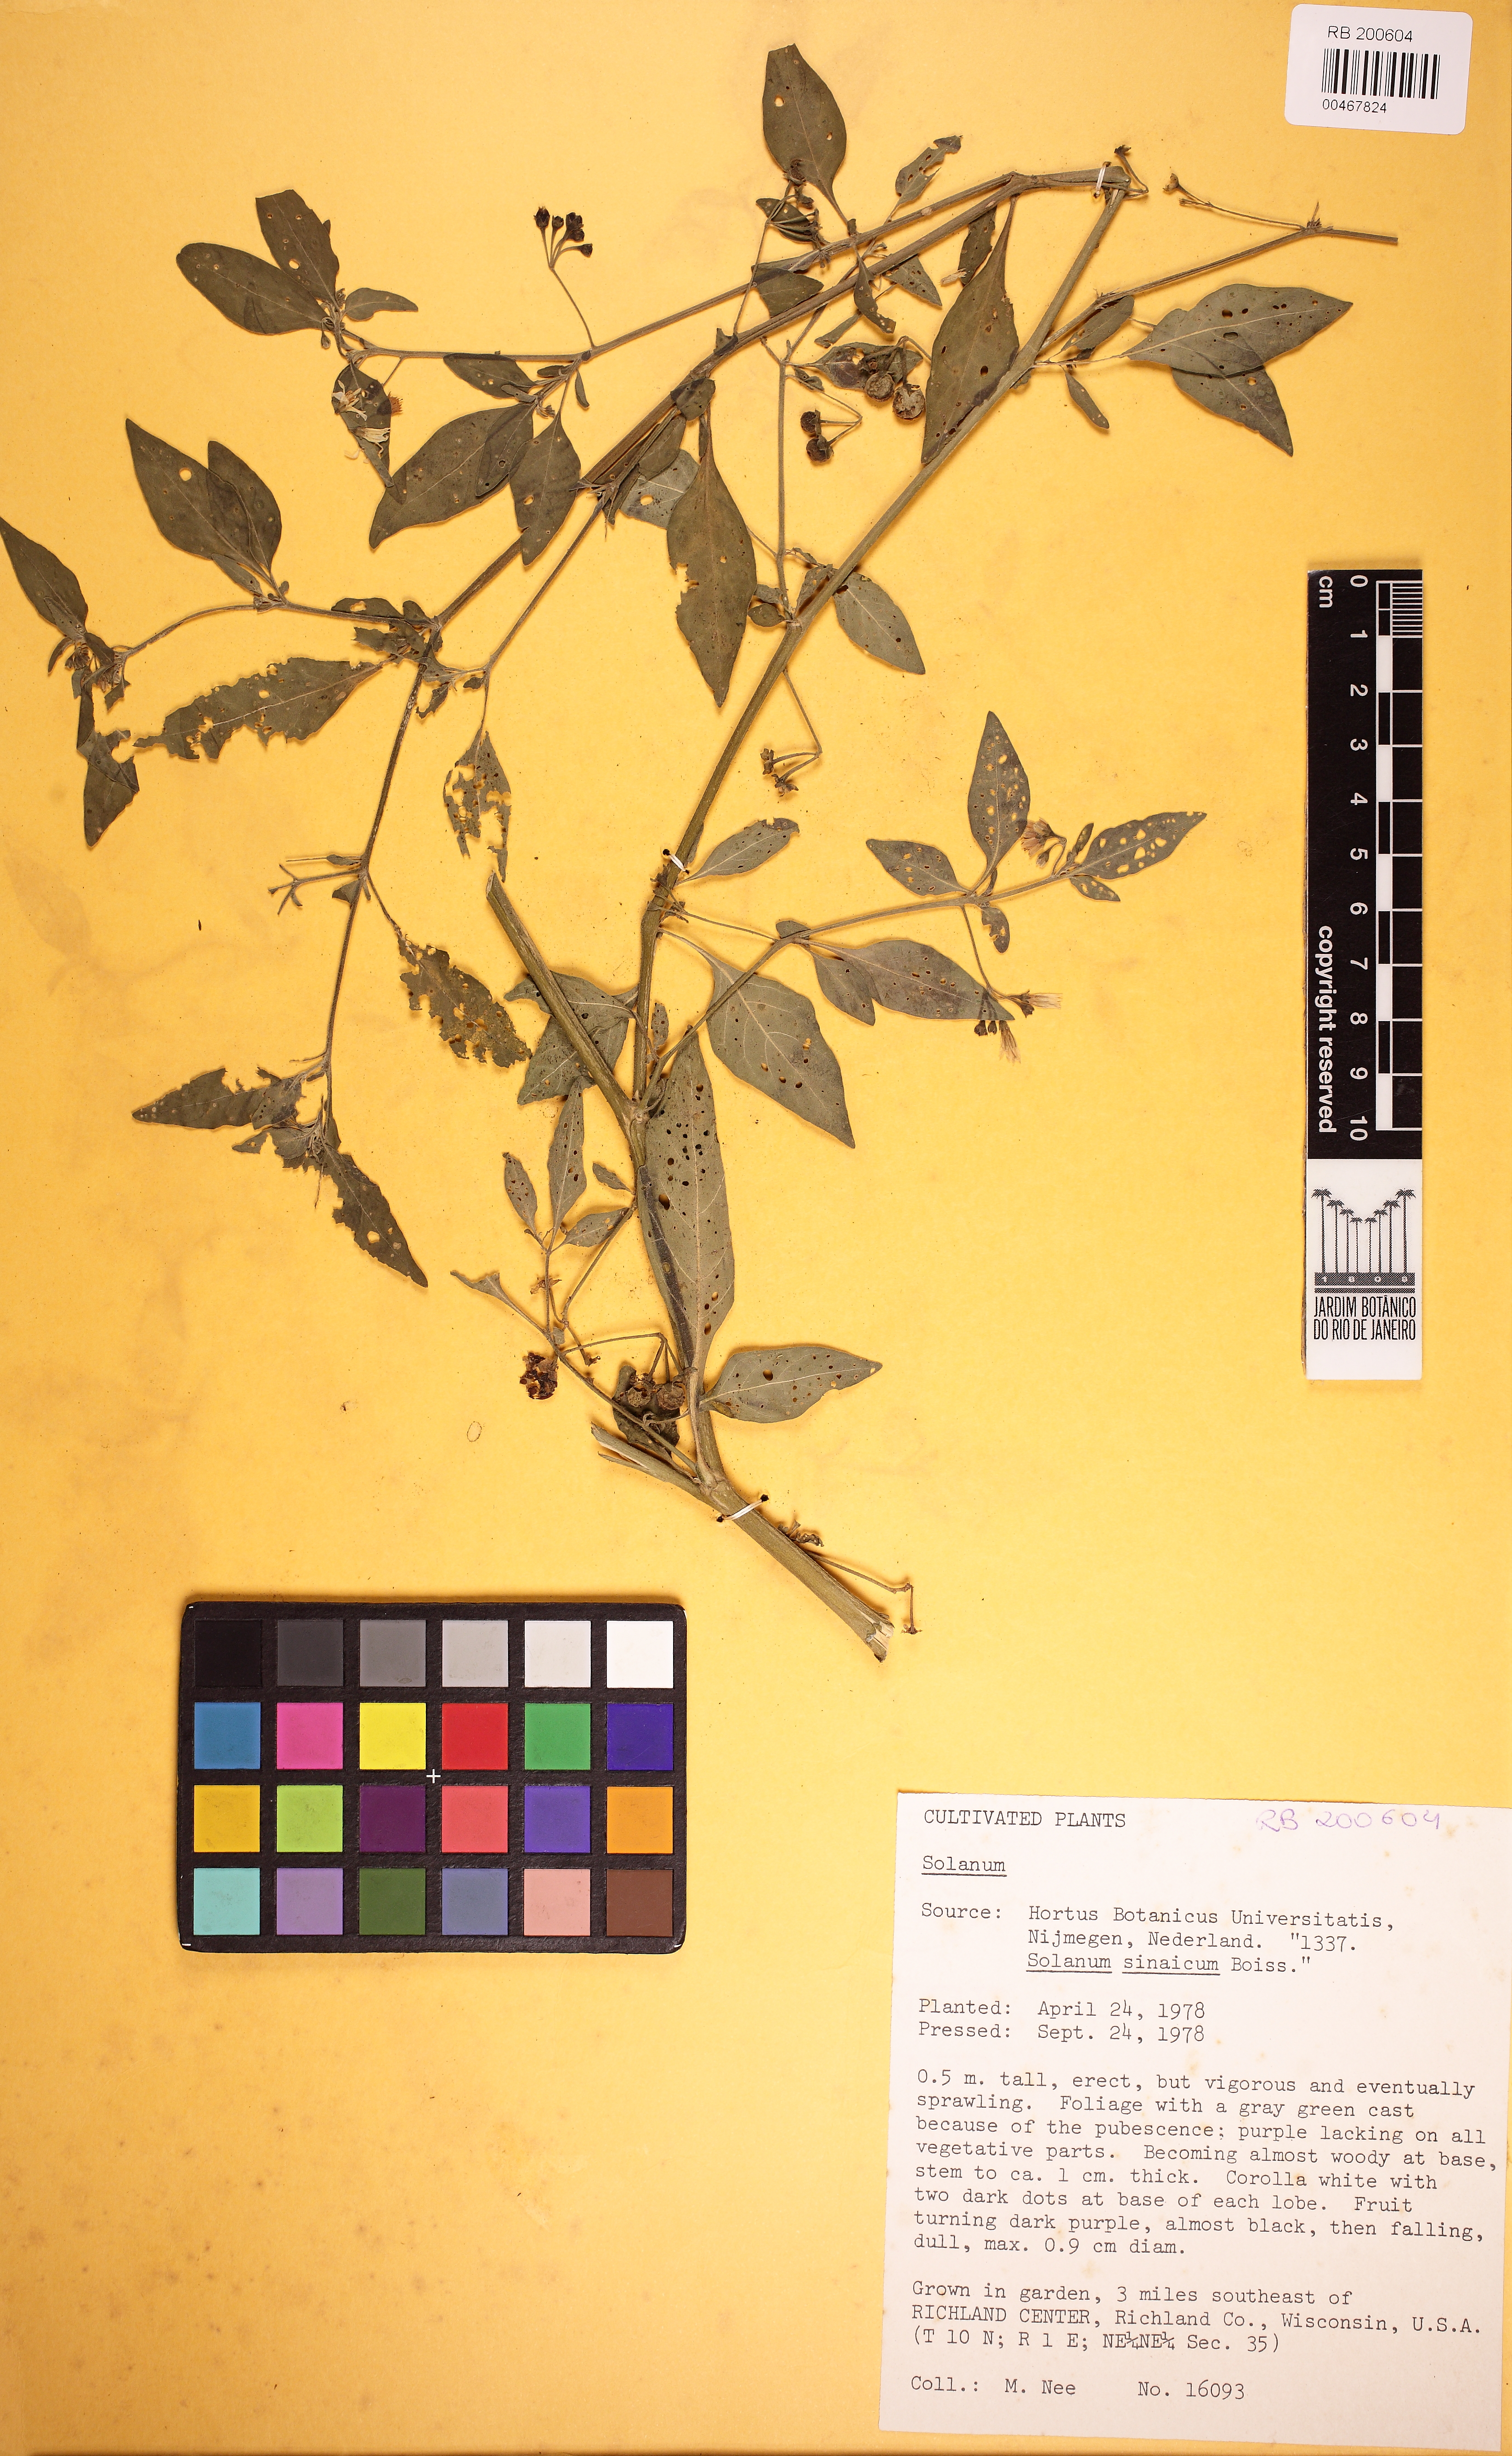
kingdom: Plantae
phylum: Tracheophyta
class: Magnoliopsida
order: Solanales
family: Solanaceae
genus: Solanum
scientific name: Solanum chenopodioides
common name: Tall nightshade
